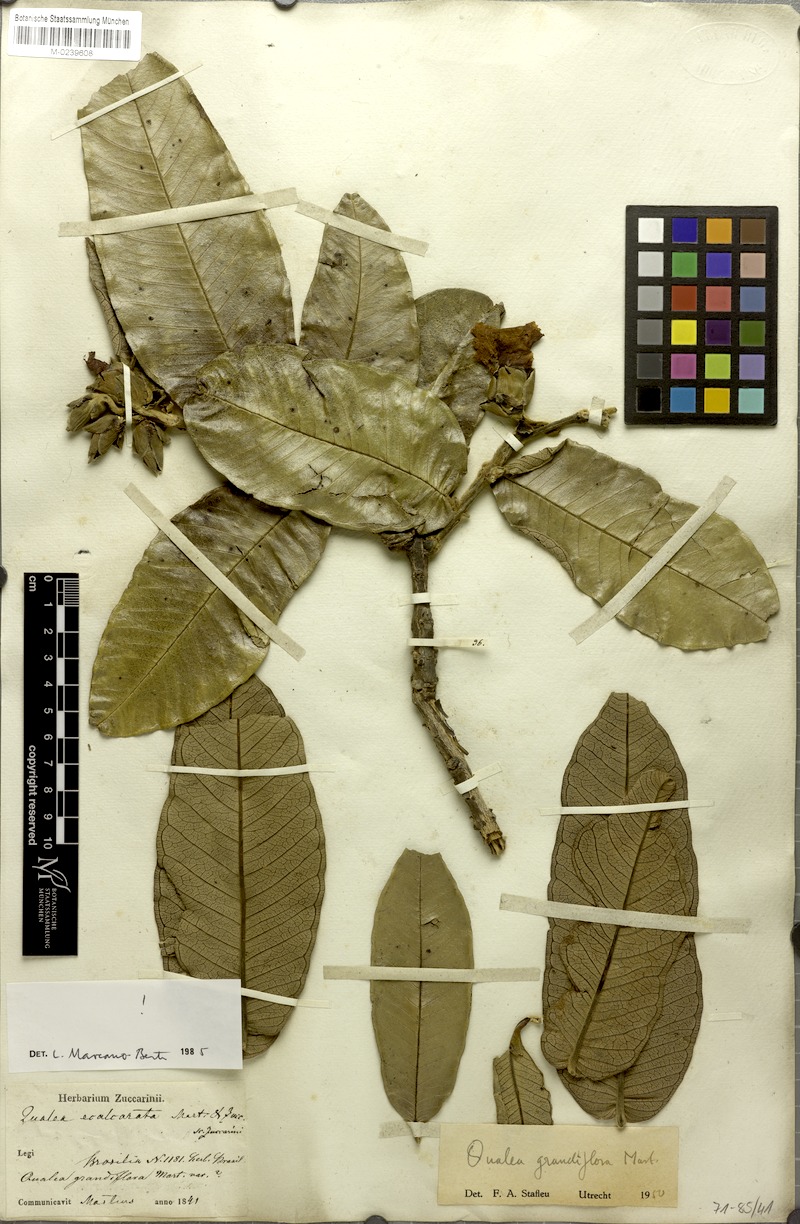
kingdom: Plantae
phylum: Tracheophyta
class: Magnoliopsida
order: Myrtales
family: Vochysiaceae
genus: Qualea
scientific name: Qualea grandiflora
